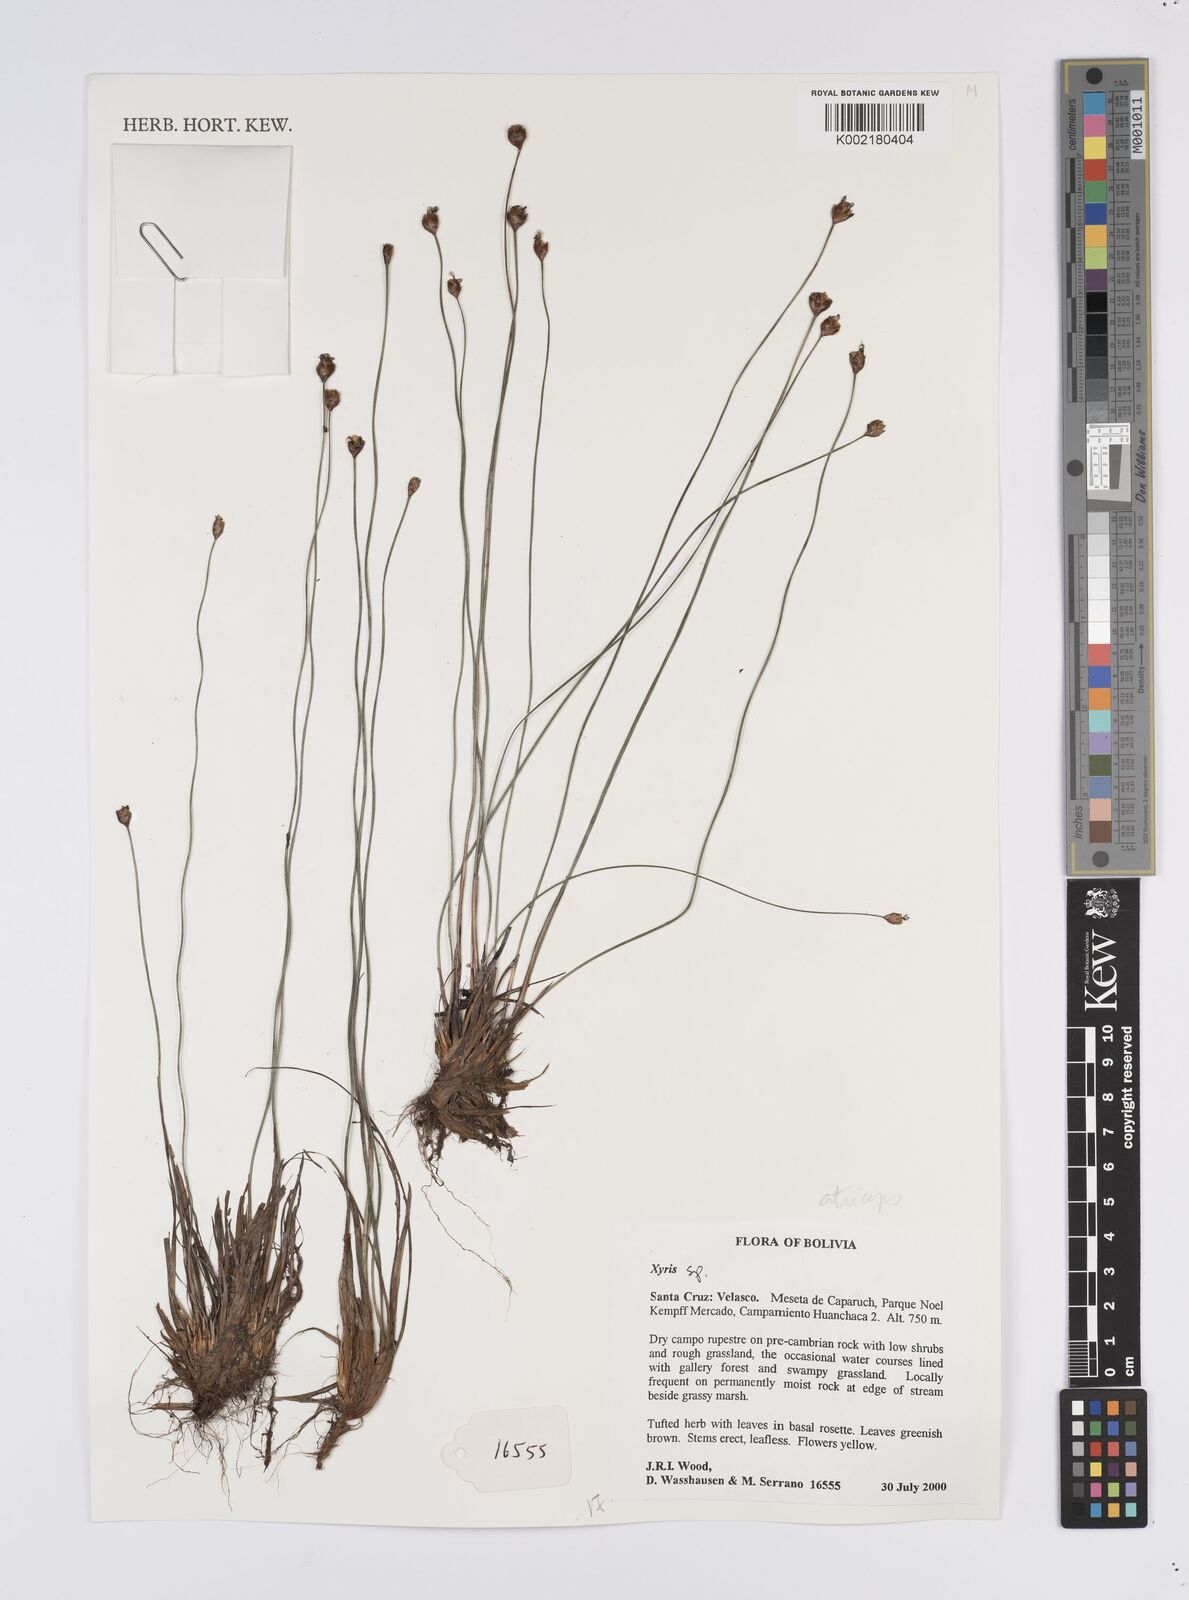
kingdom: Plantae
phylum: Tracheophyta
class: Liliopsida
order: Poales
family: Xyridaceae
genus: Xyris
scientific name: Xyris
